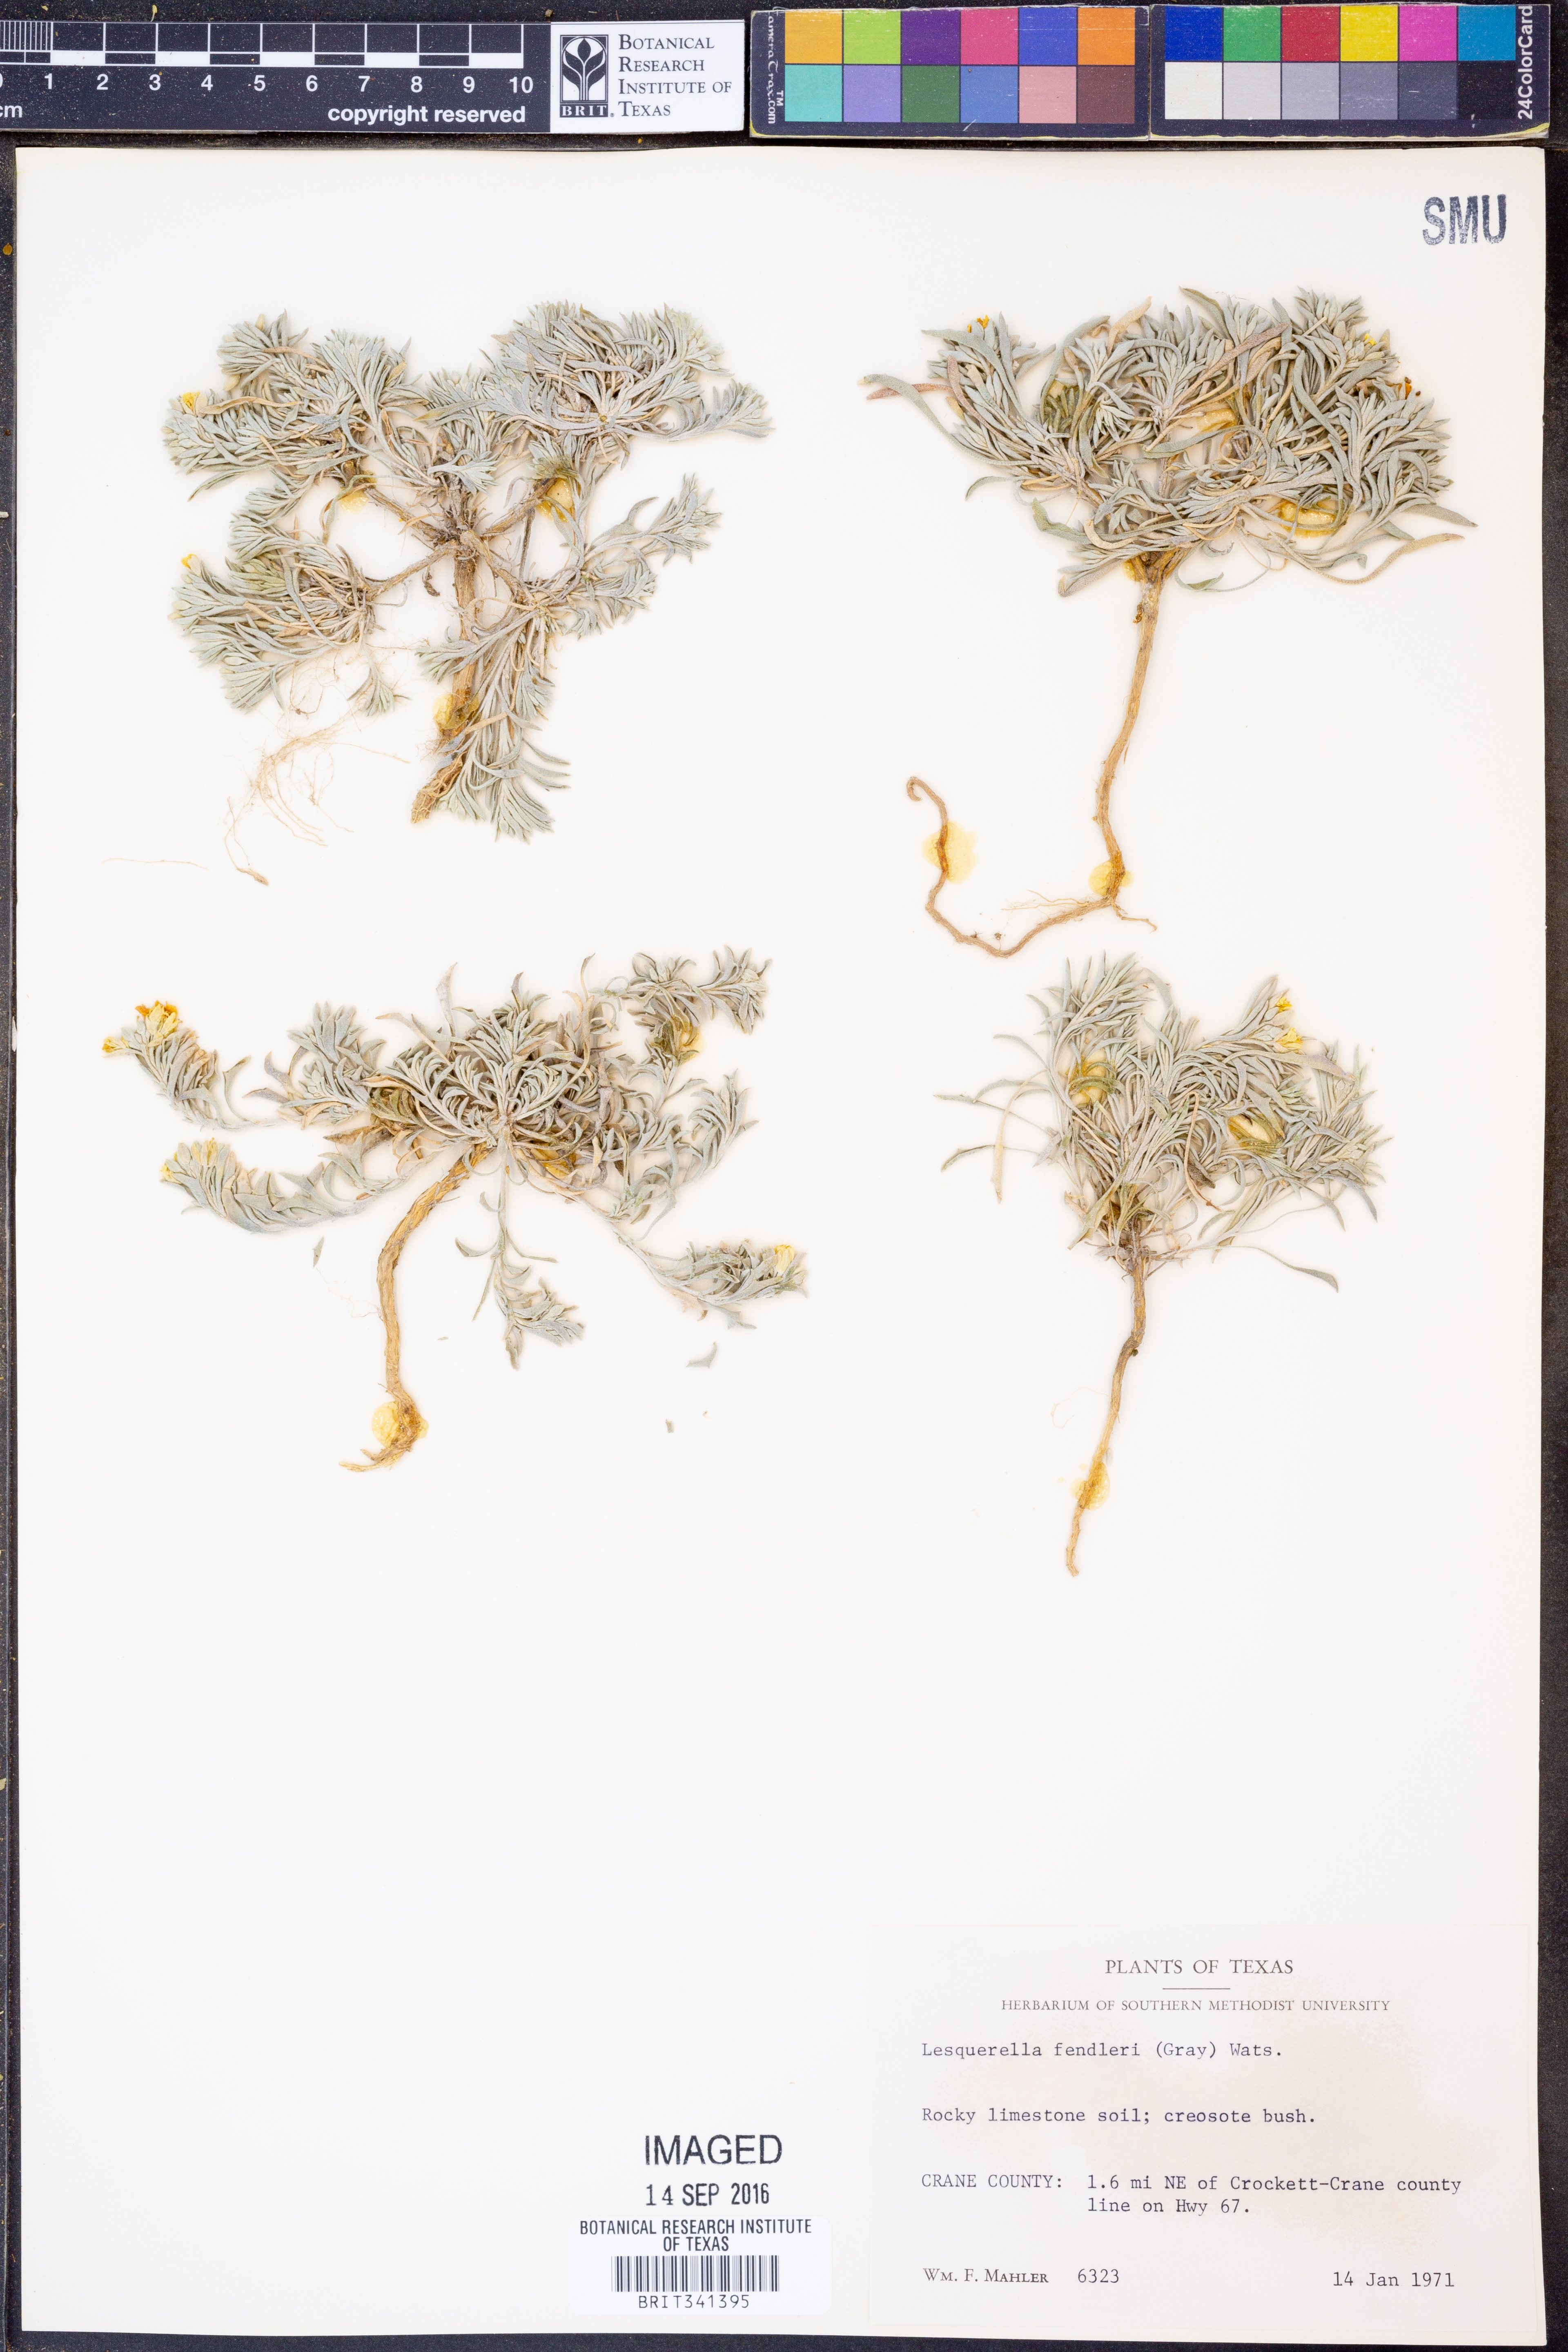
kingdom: Plantae
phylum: Tracheophyta
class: Magnoliopsida
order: Brassicales
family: Brassicaceae
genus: Physaria
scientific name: Physaria fendleri
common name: Fendler's bladderpod
